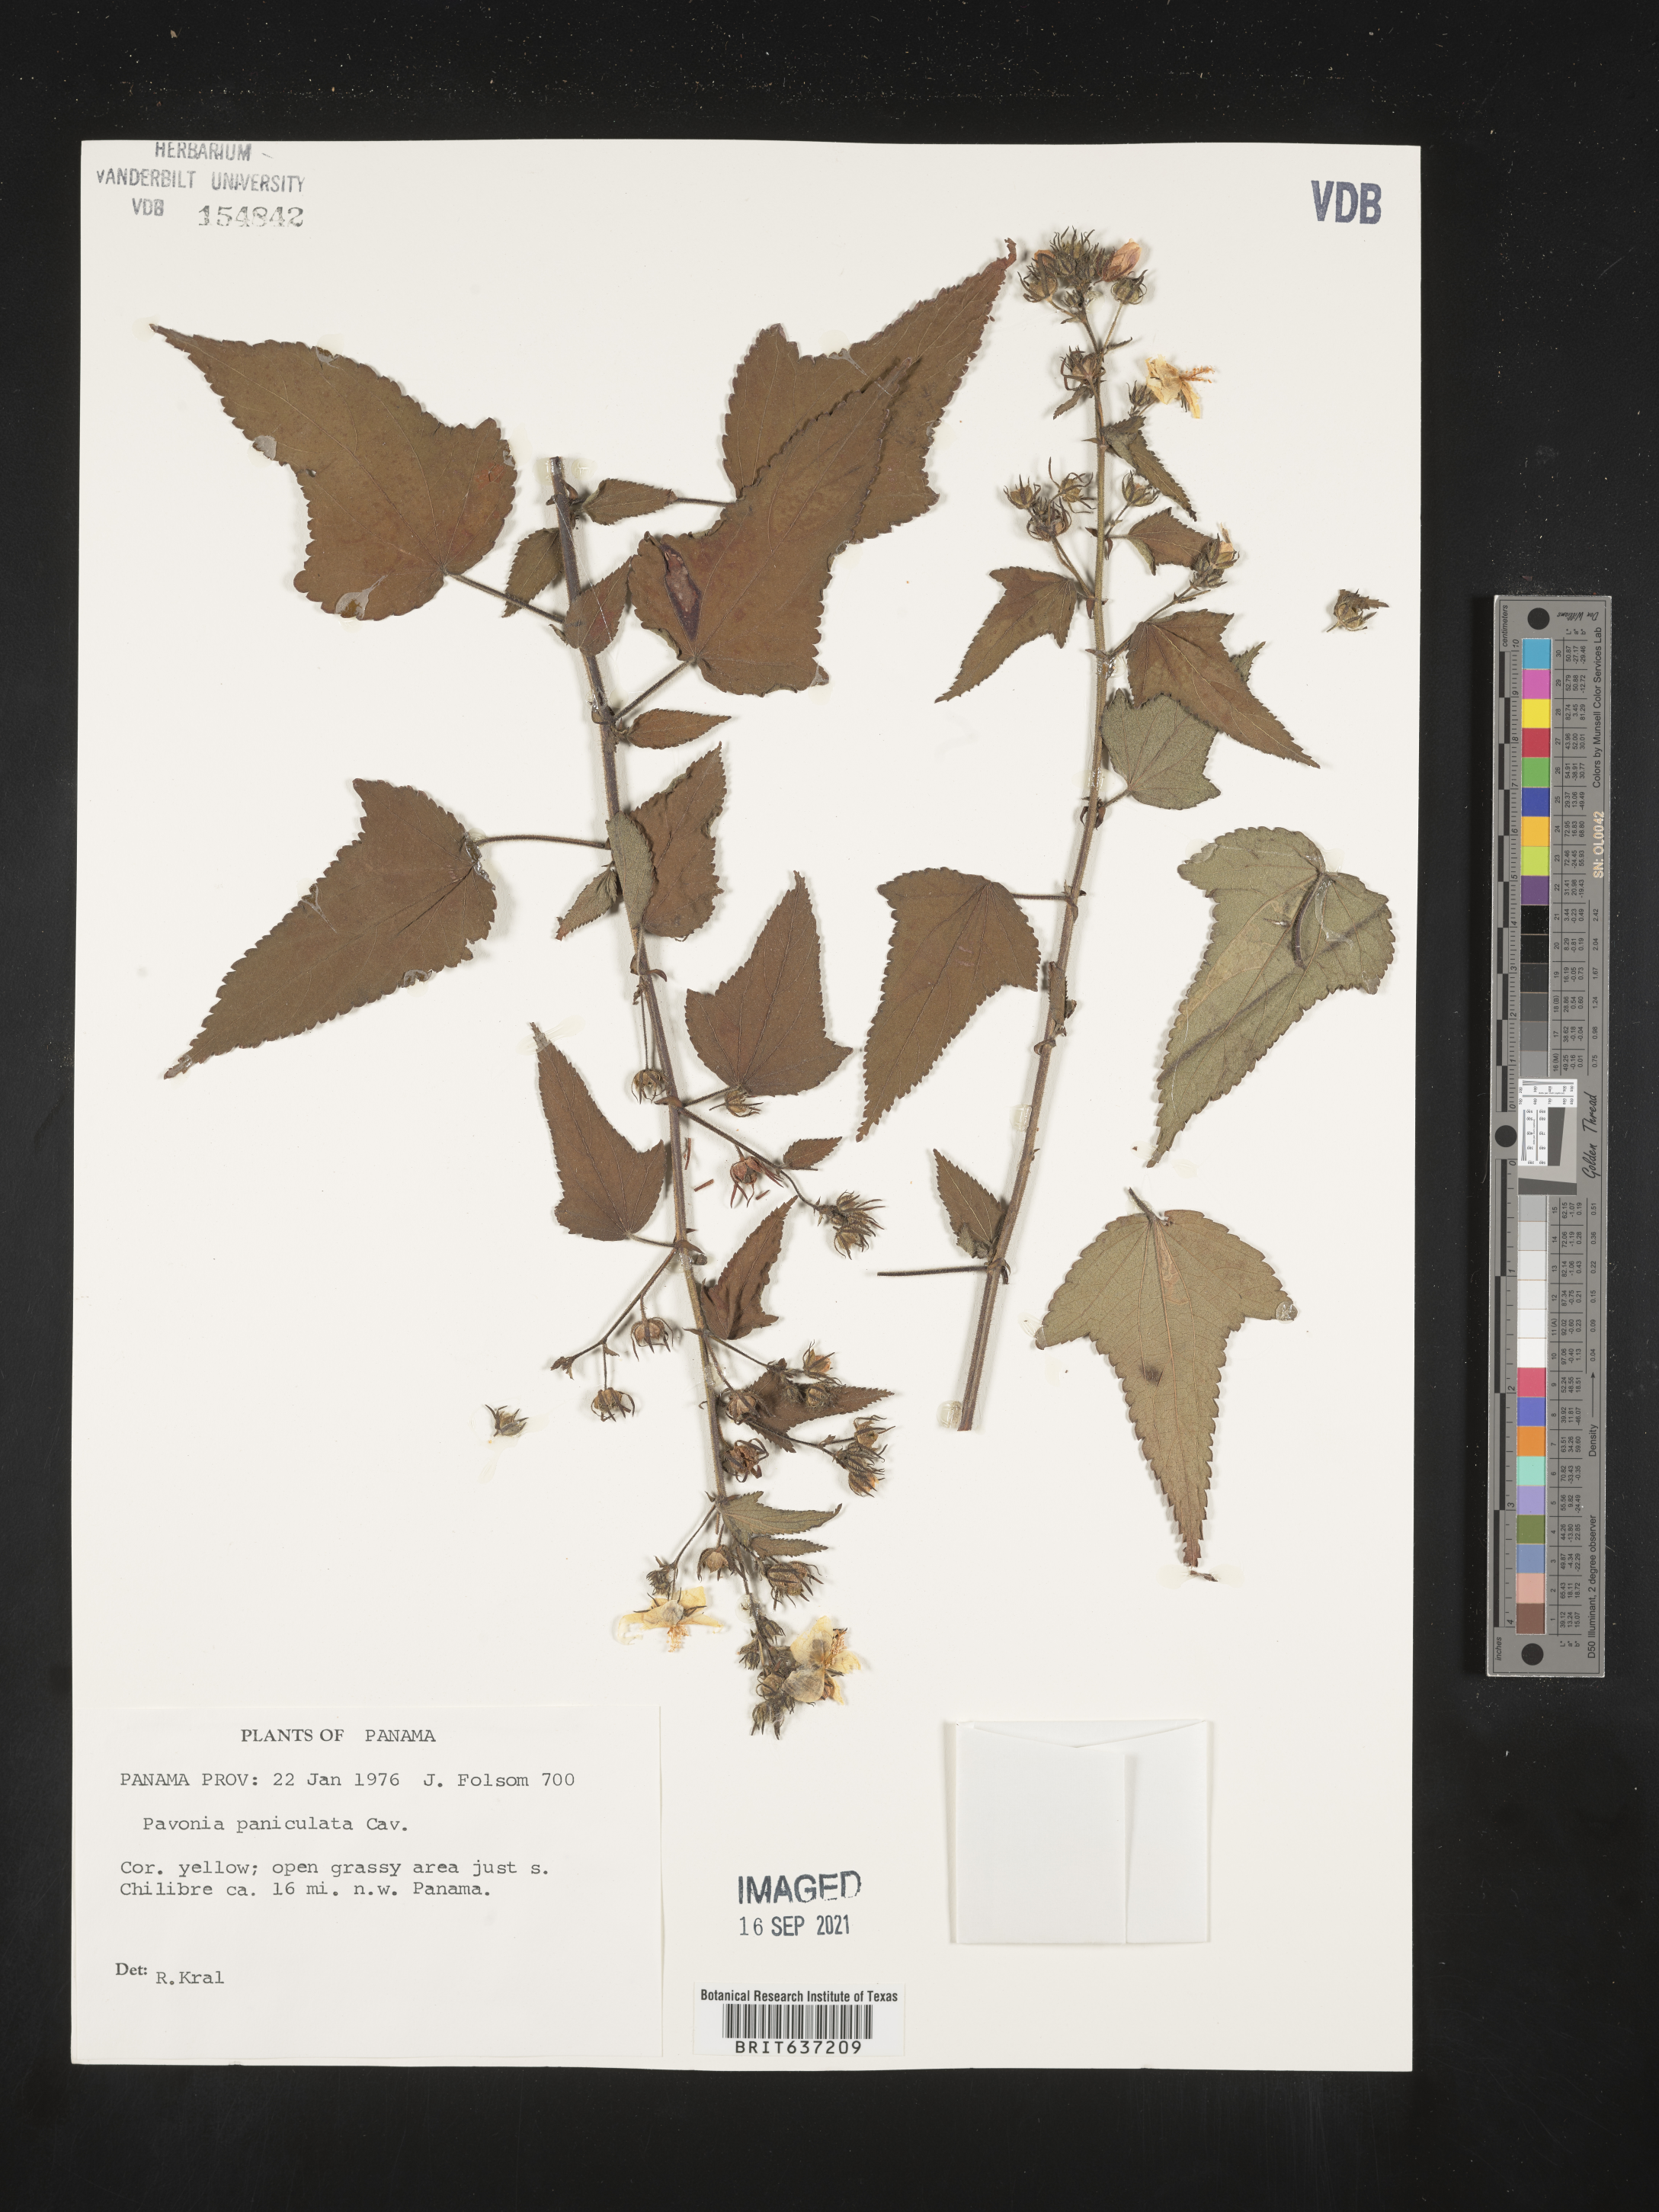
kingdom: Plantae
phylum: Tracheophyta
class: Magnoliopsida
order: Malvales
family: Malvaceae
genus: Pavonia
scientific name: Pavonia
